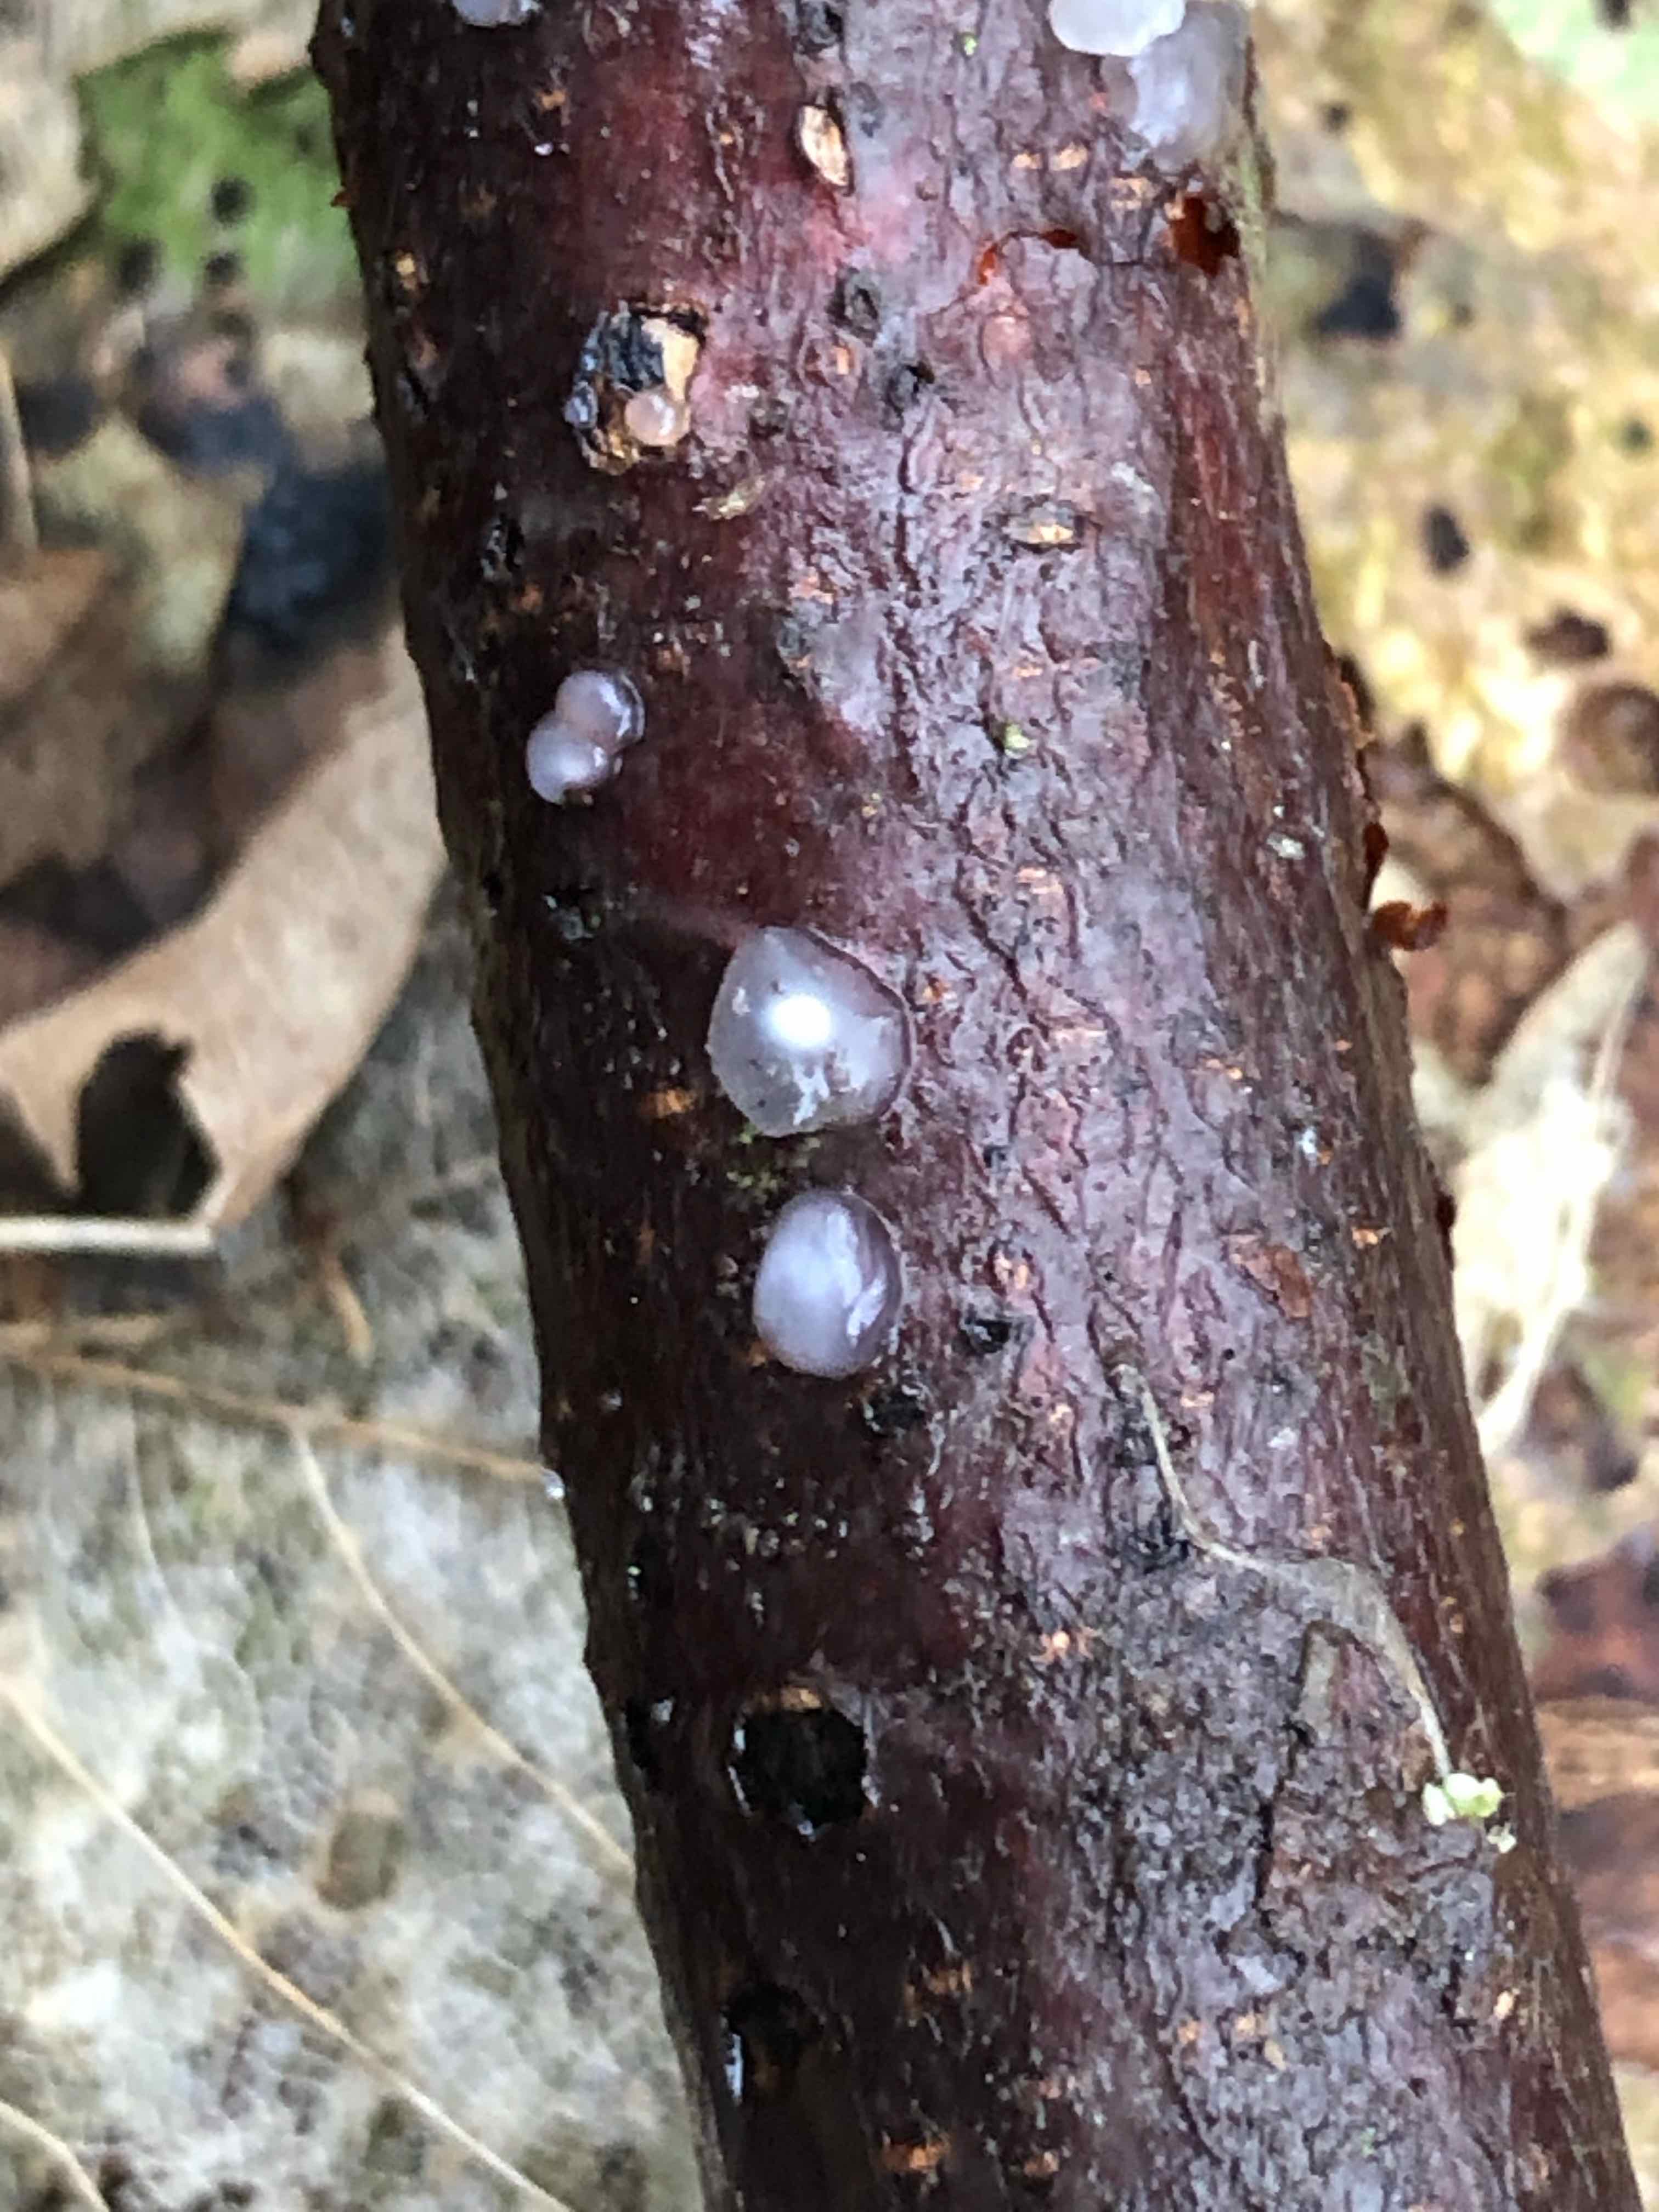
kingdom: Fungi
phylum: Basidiomycota
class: Agaricomycetes
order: Auriculariales
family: Hyaloriaceae
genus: Myxarium
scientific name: Myxarium nucleatum
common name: klar bævretop
